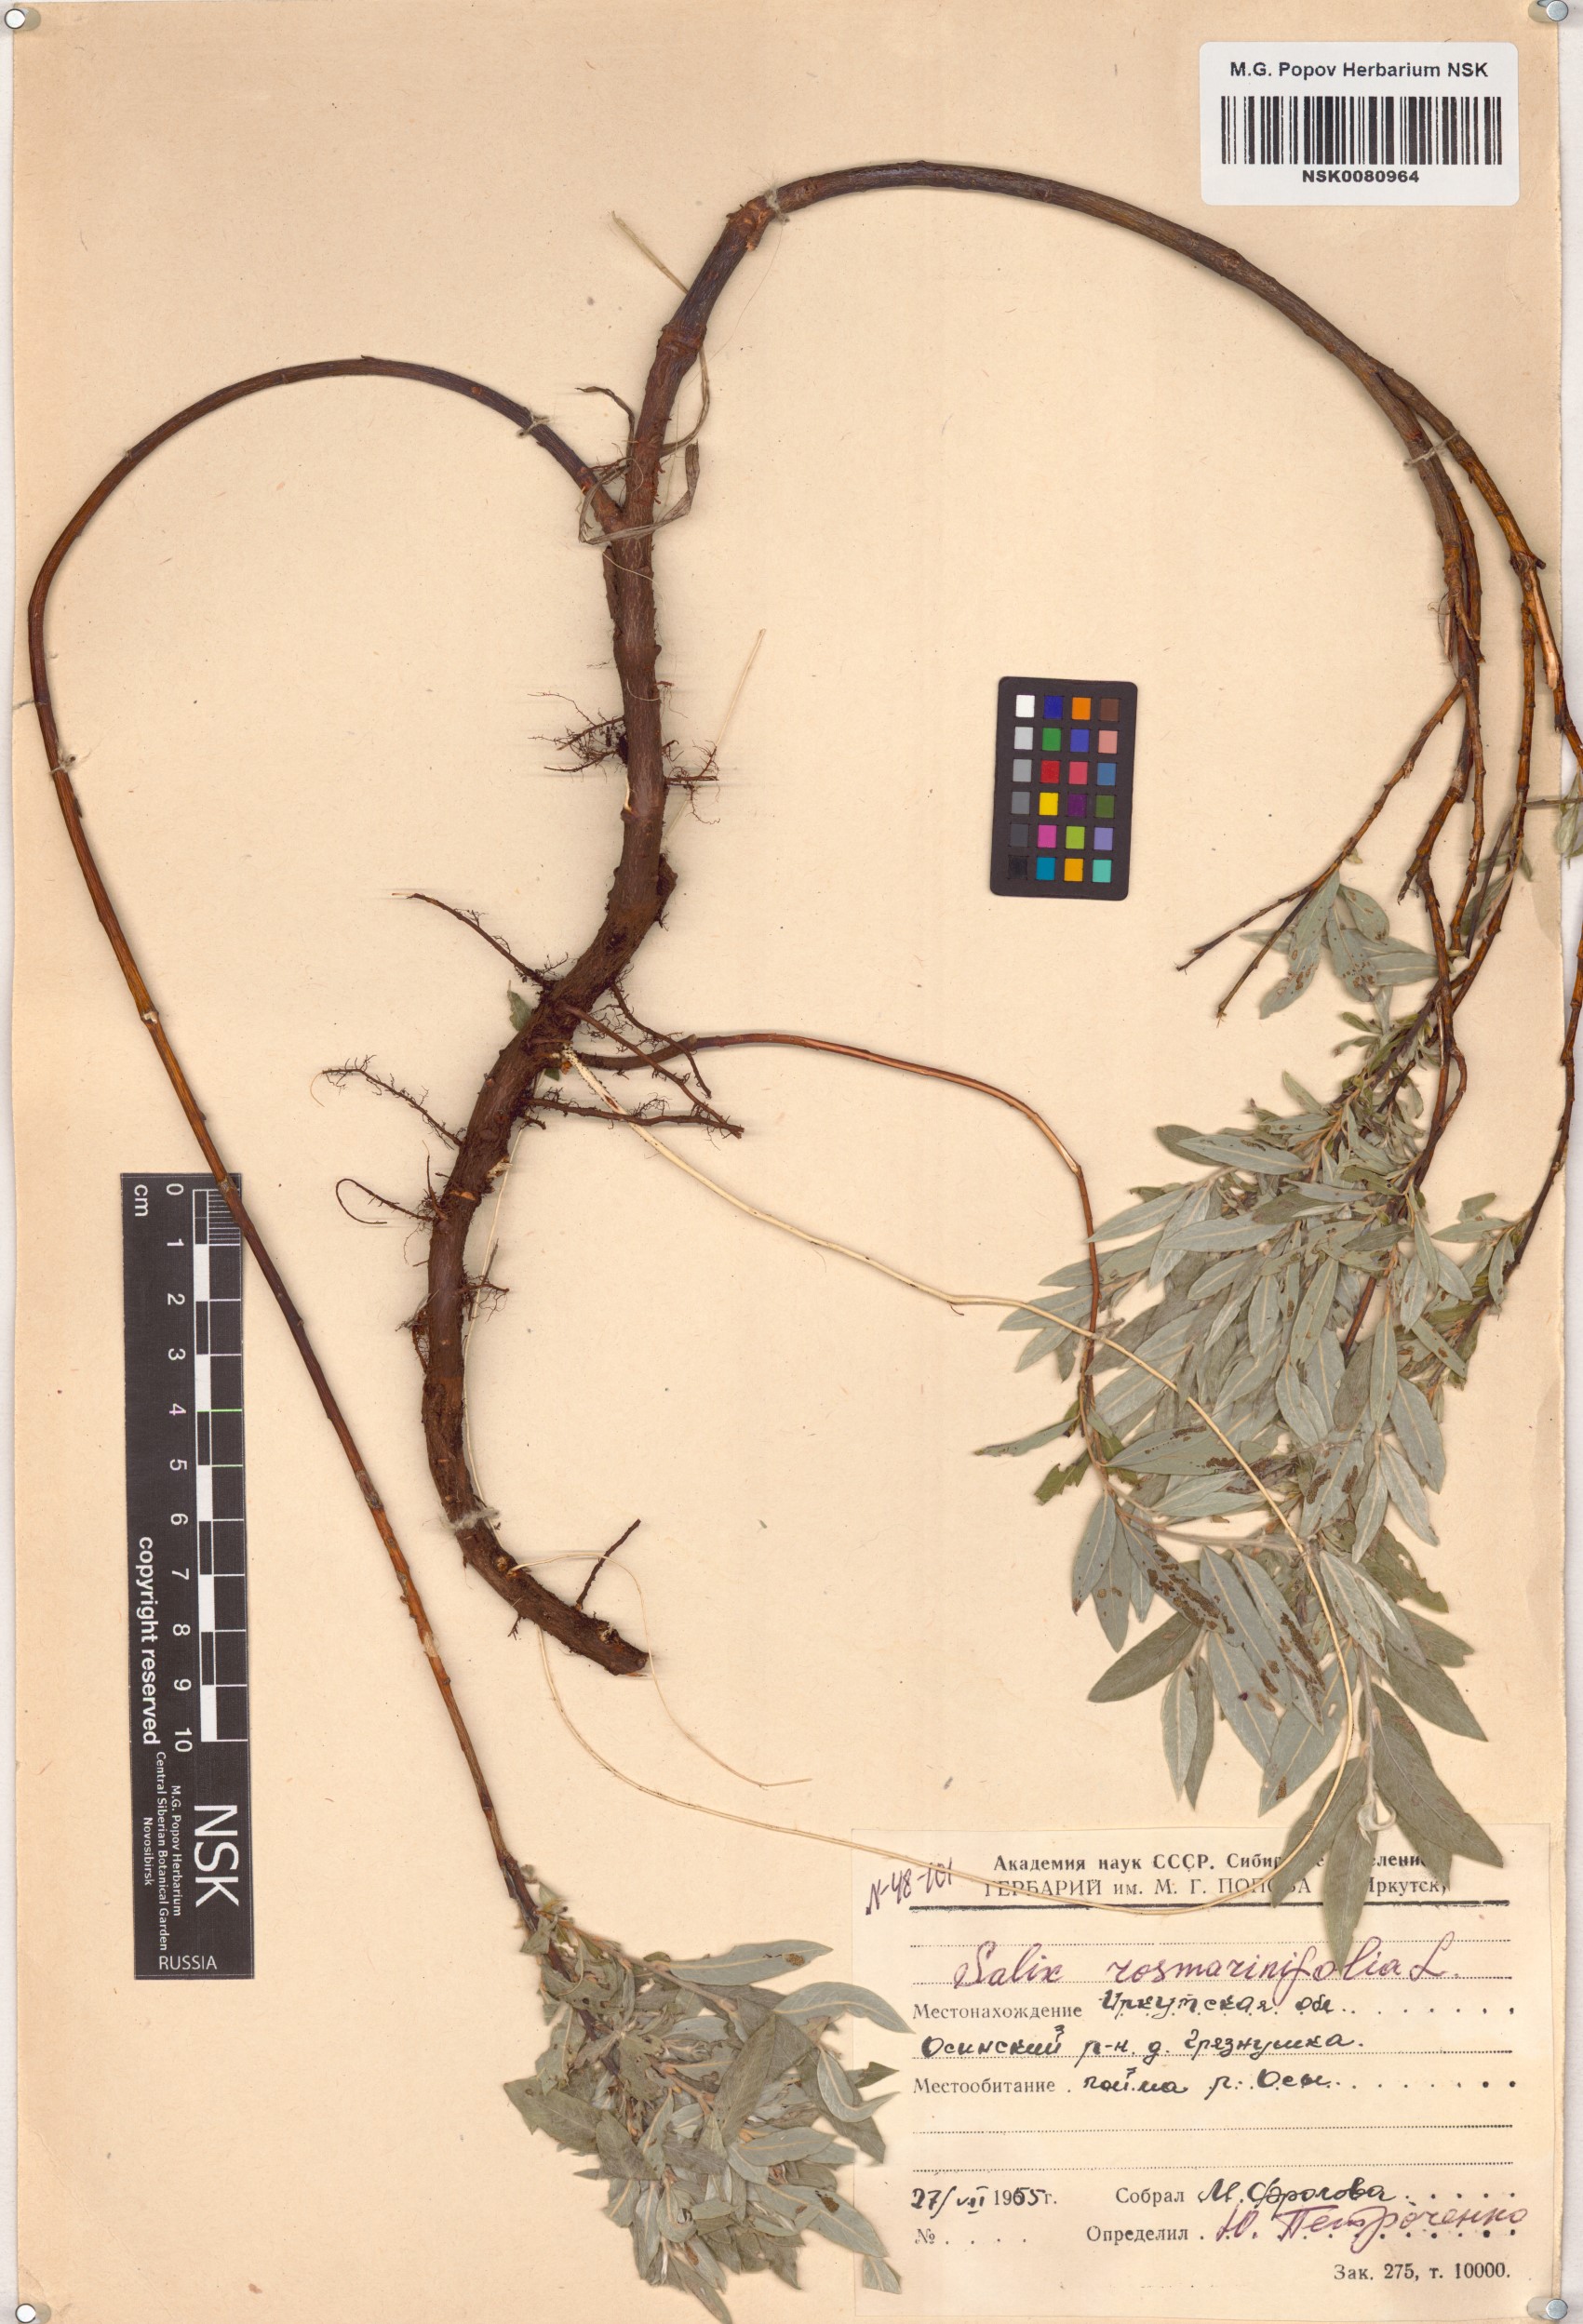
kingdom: Plantae
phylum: Tracheophyta
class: Magnoliopsida
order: Malpighiales
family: Salicaceae
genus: Salix
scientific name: Salix rosmarinifolia
